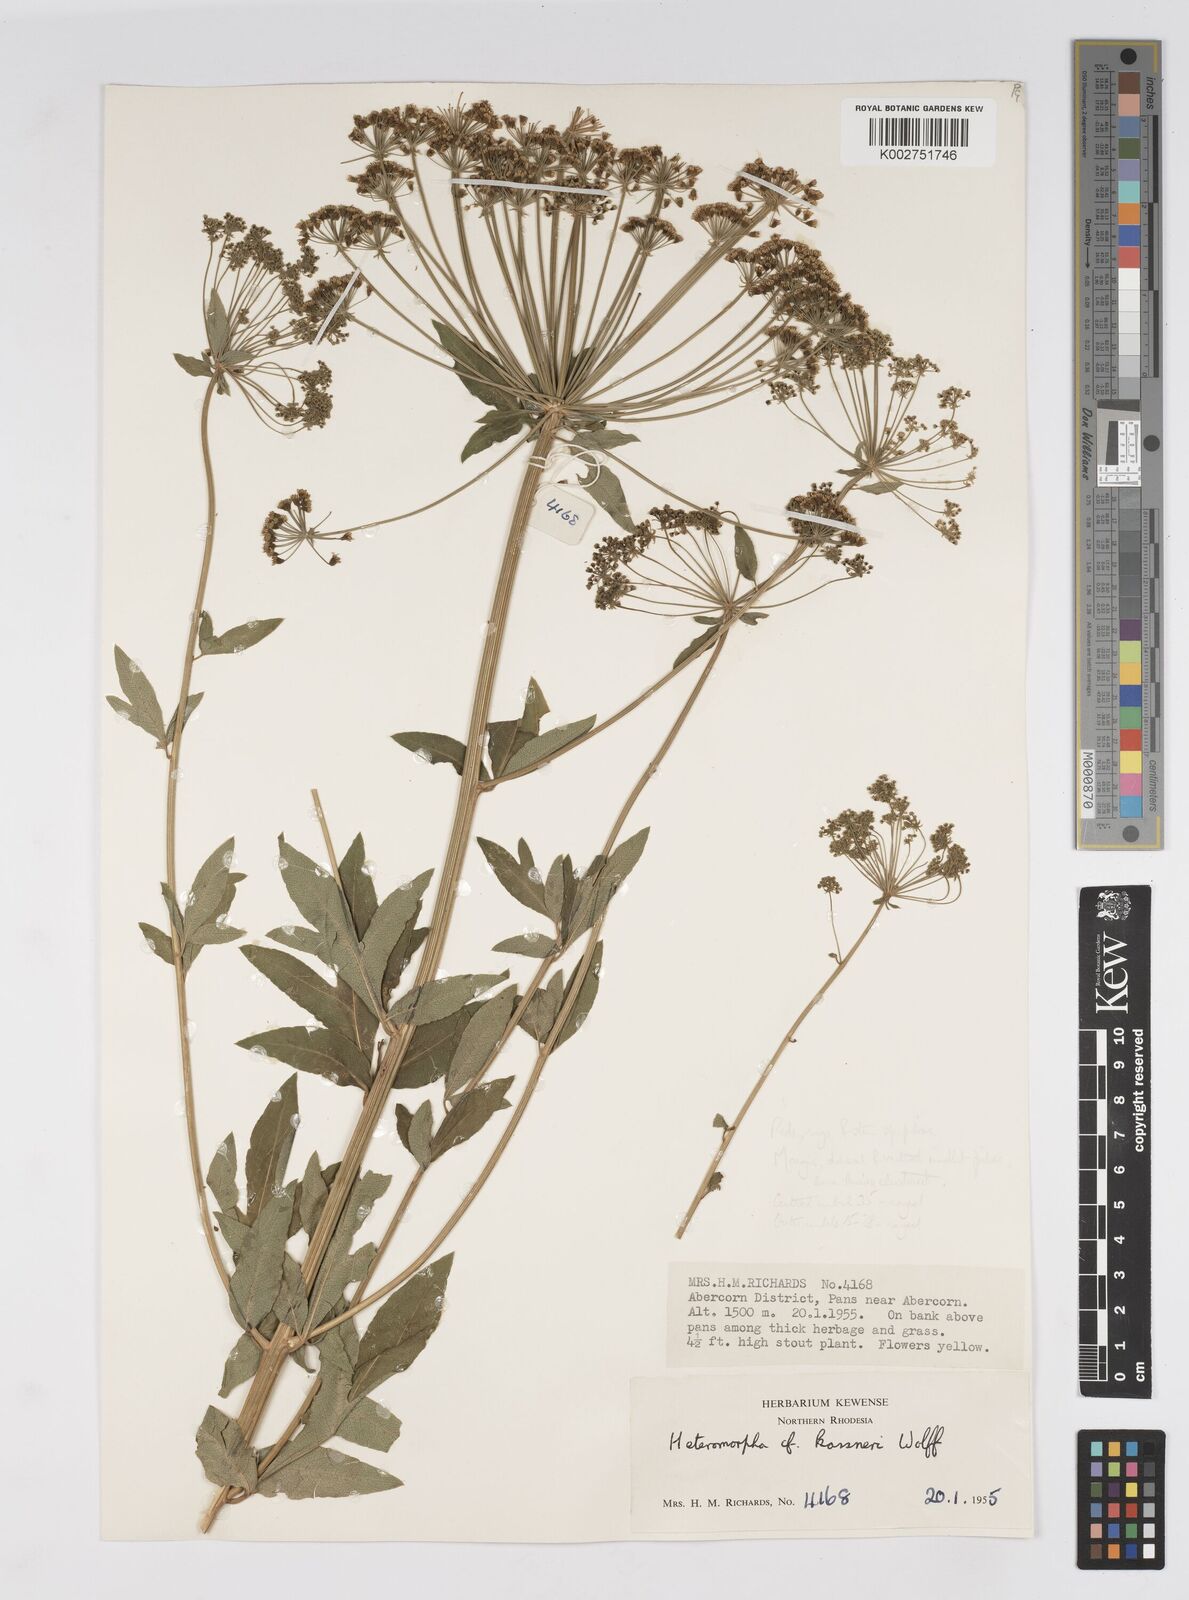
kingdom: Plantae
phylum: Tracheophyta
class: Magnoliopsida
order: Apiales
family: Apiaceae
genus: Heteromorpha
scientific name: Heteromorpha involucrata
